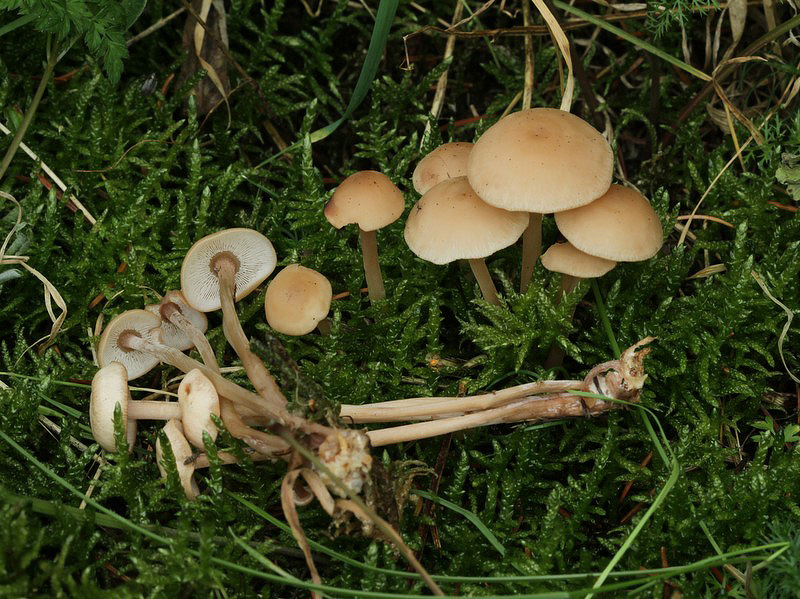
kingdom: Fungi
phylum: Basidiomycota
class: Agaricomycetes
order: Agaricales
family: Omphalotaceae
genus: Collybiopsis
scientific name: Collybiopsis confluens
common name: knippe-fladhat
